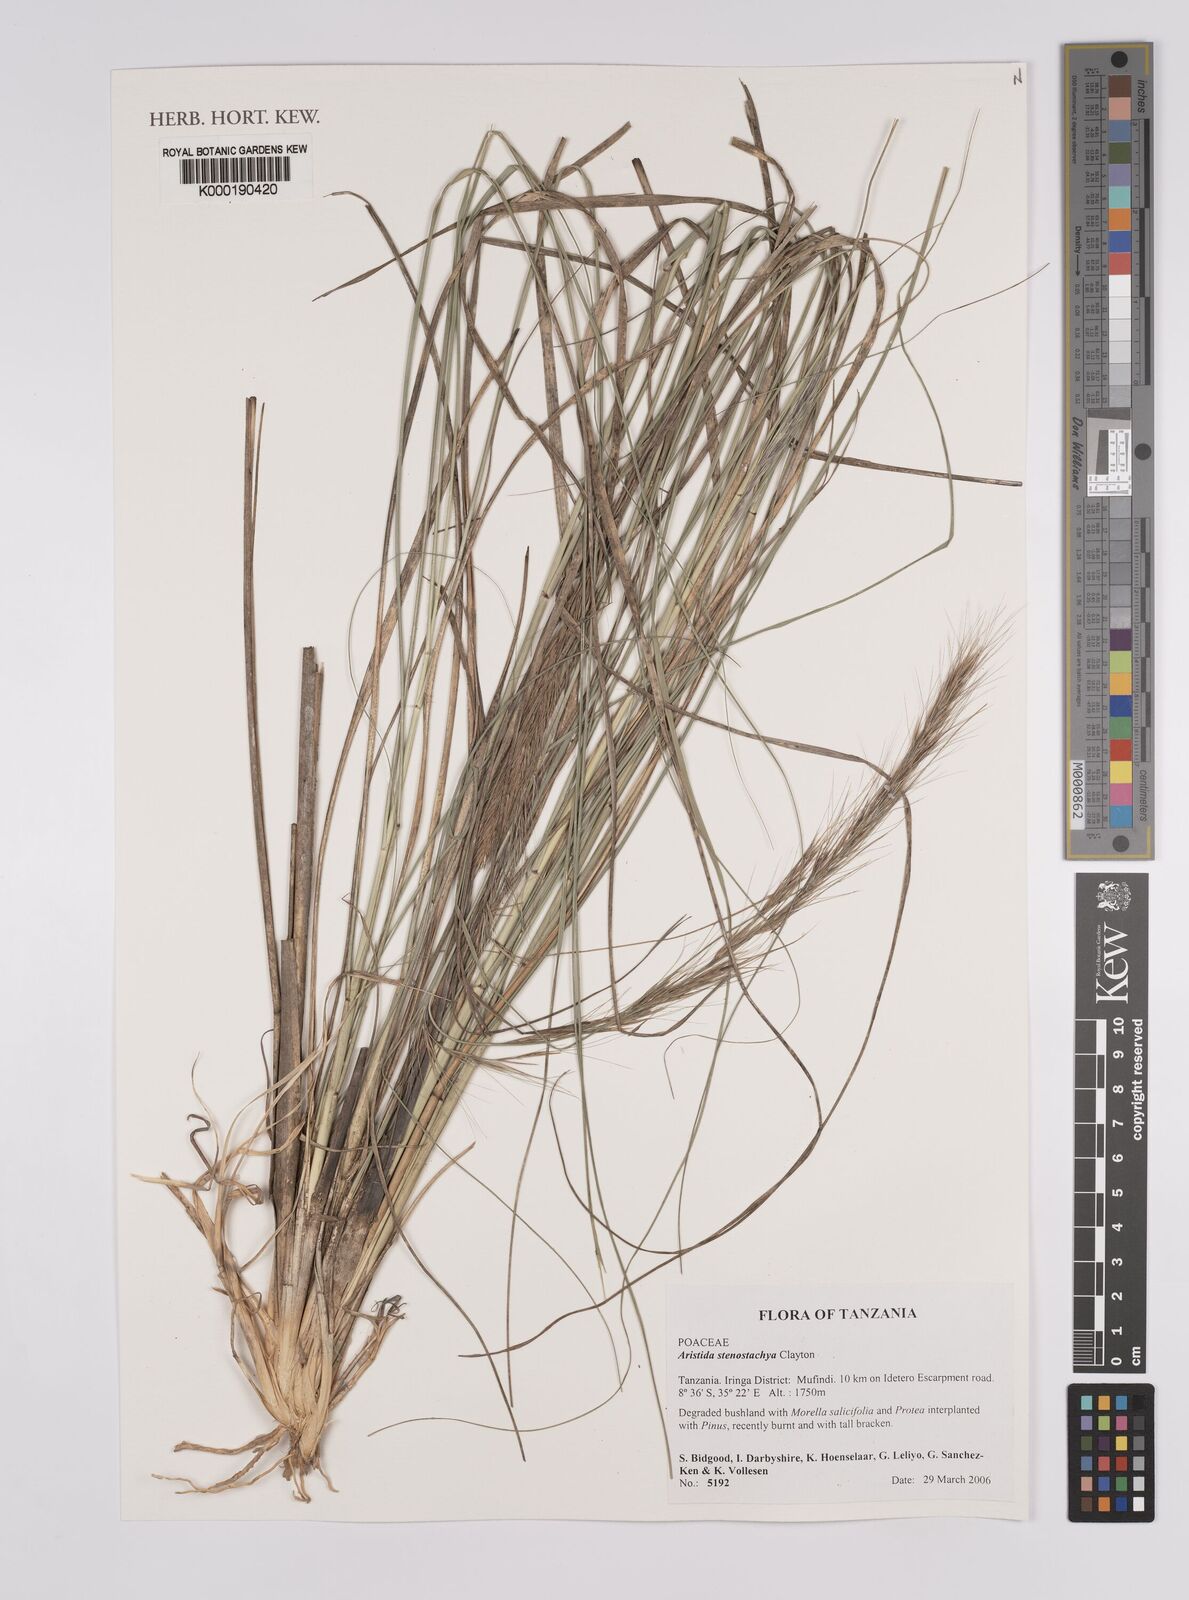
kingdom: Plantae
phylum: Tracheophyta
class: Liliopsida
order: Poales
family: Poaceae
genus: Aristida
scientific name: Aristida stenostachya
